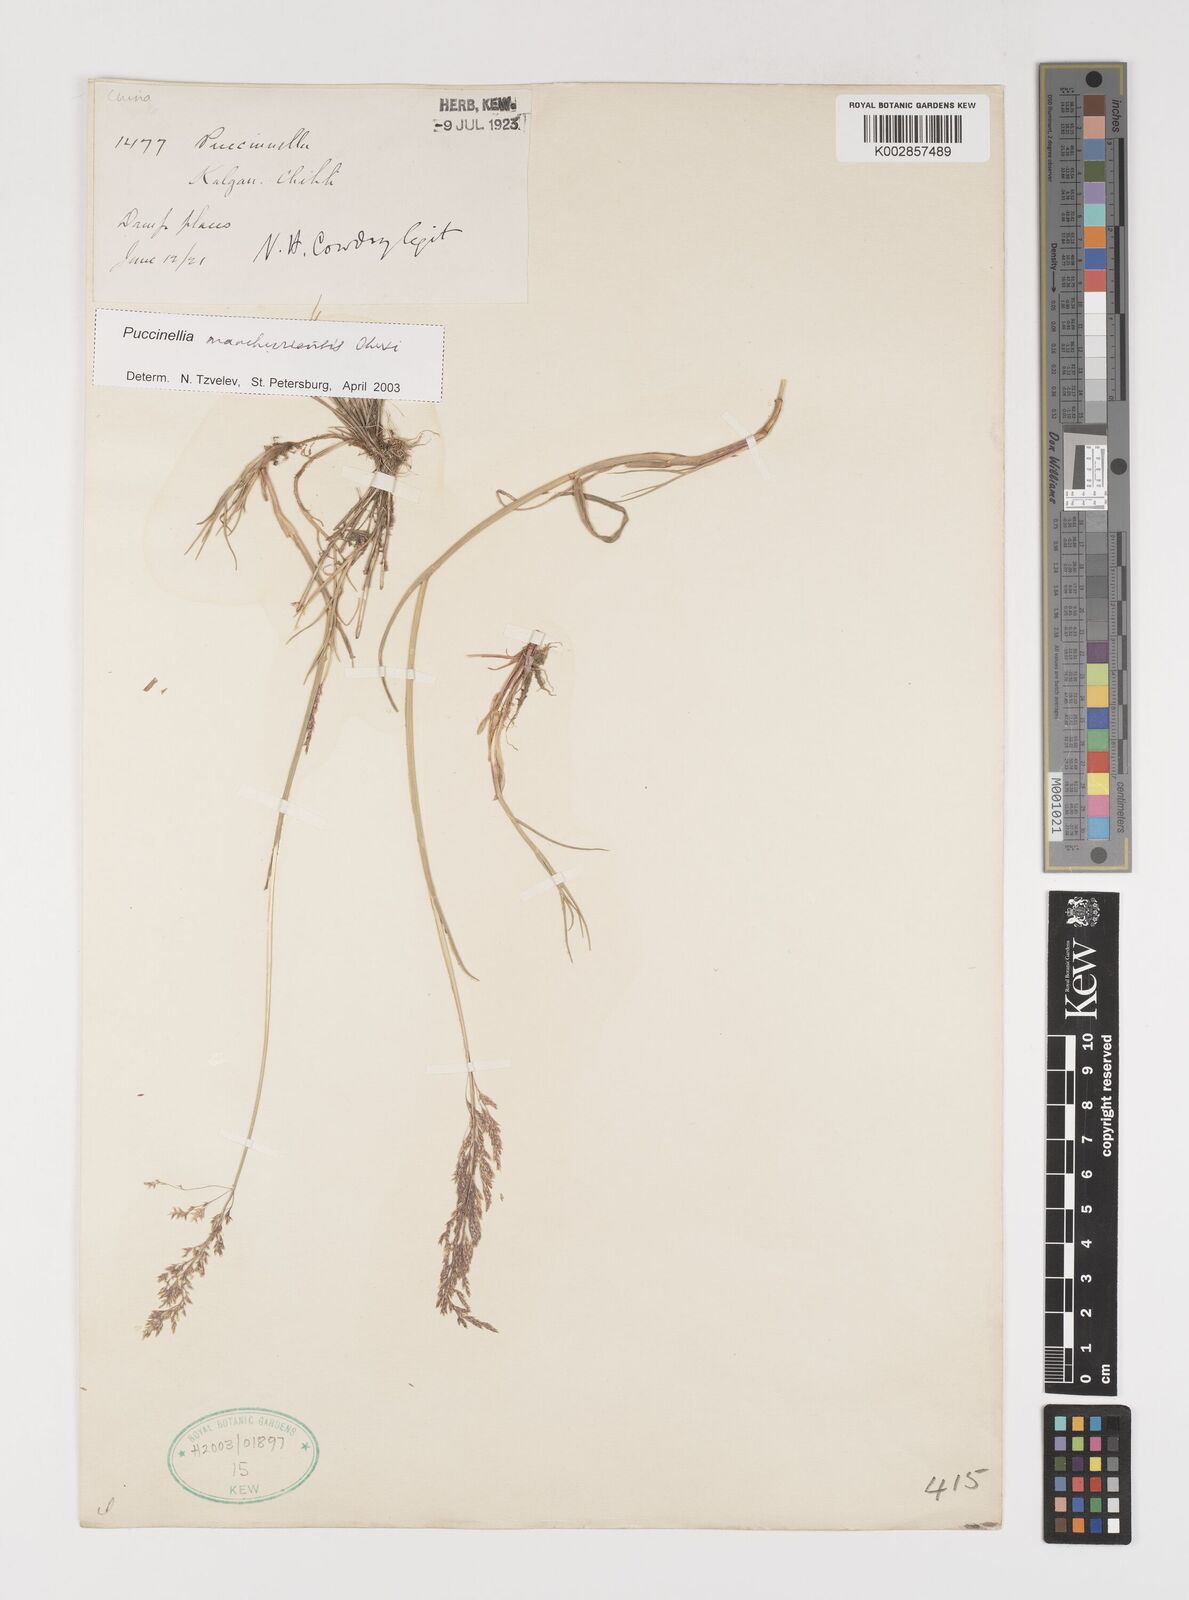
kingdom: Plantae
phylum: Tracheophyta
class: Liliopsida
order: Poales
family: Poaceae
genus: Puccinellia
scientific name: Puccinellia manchuriensis
